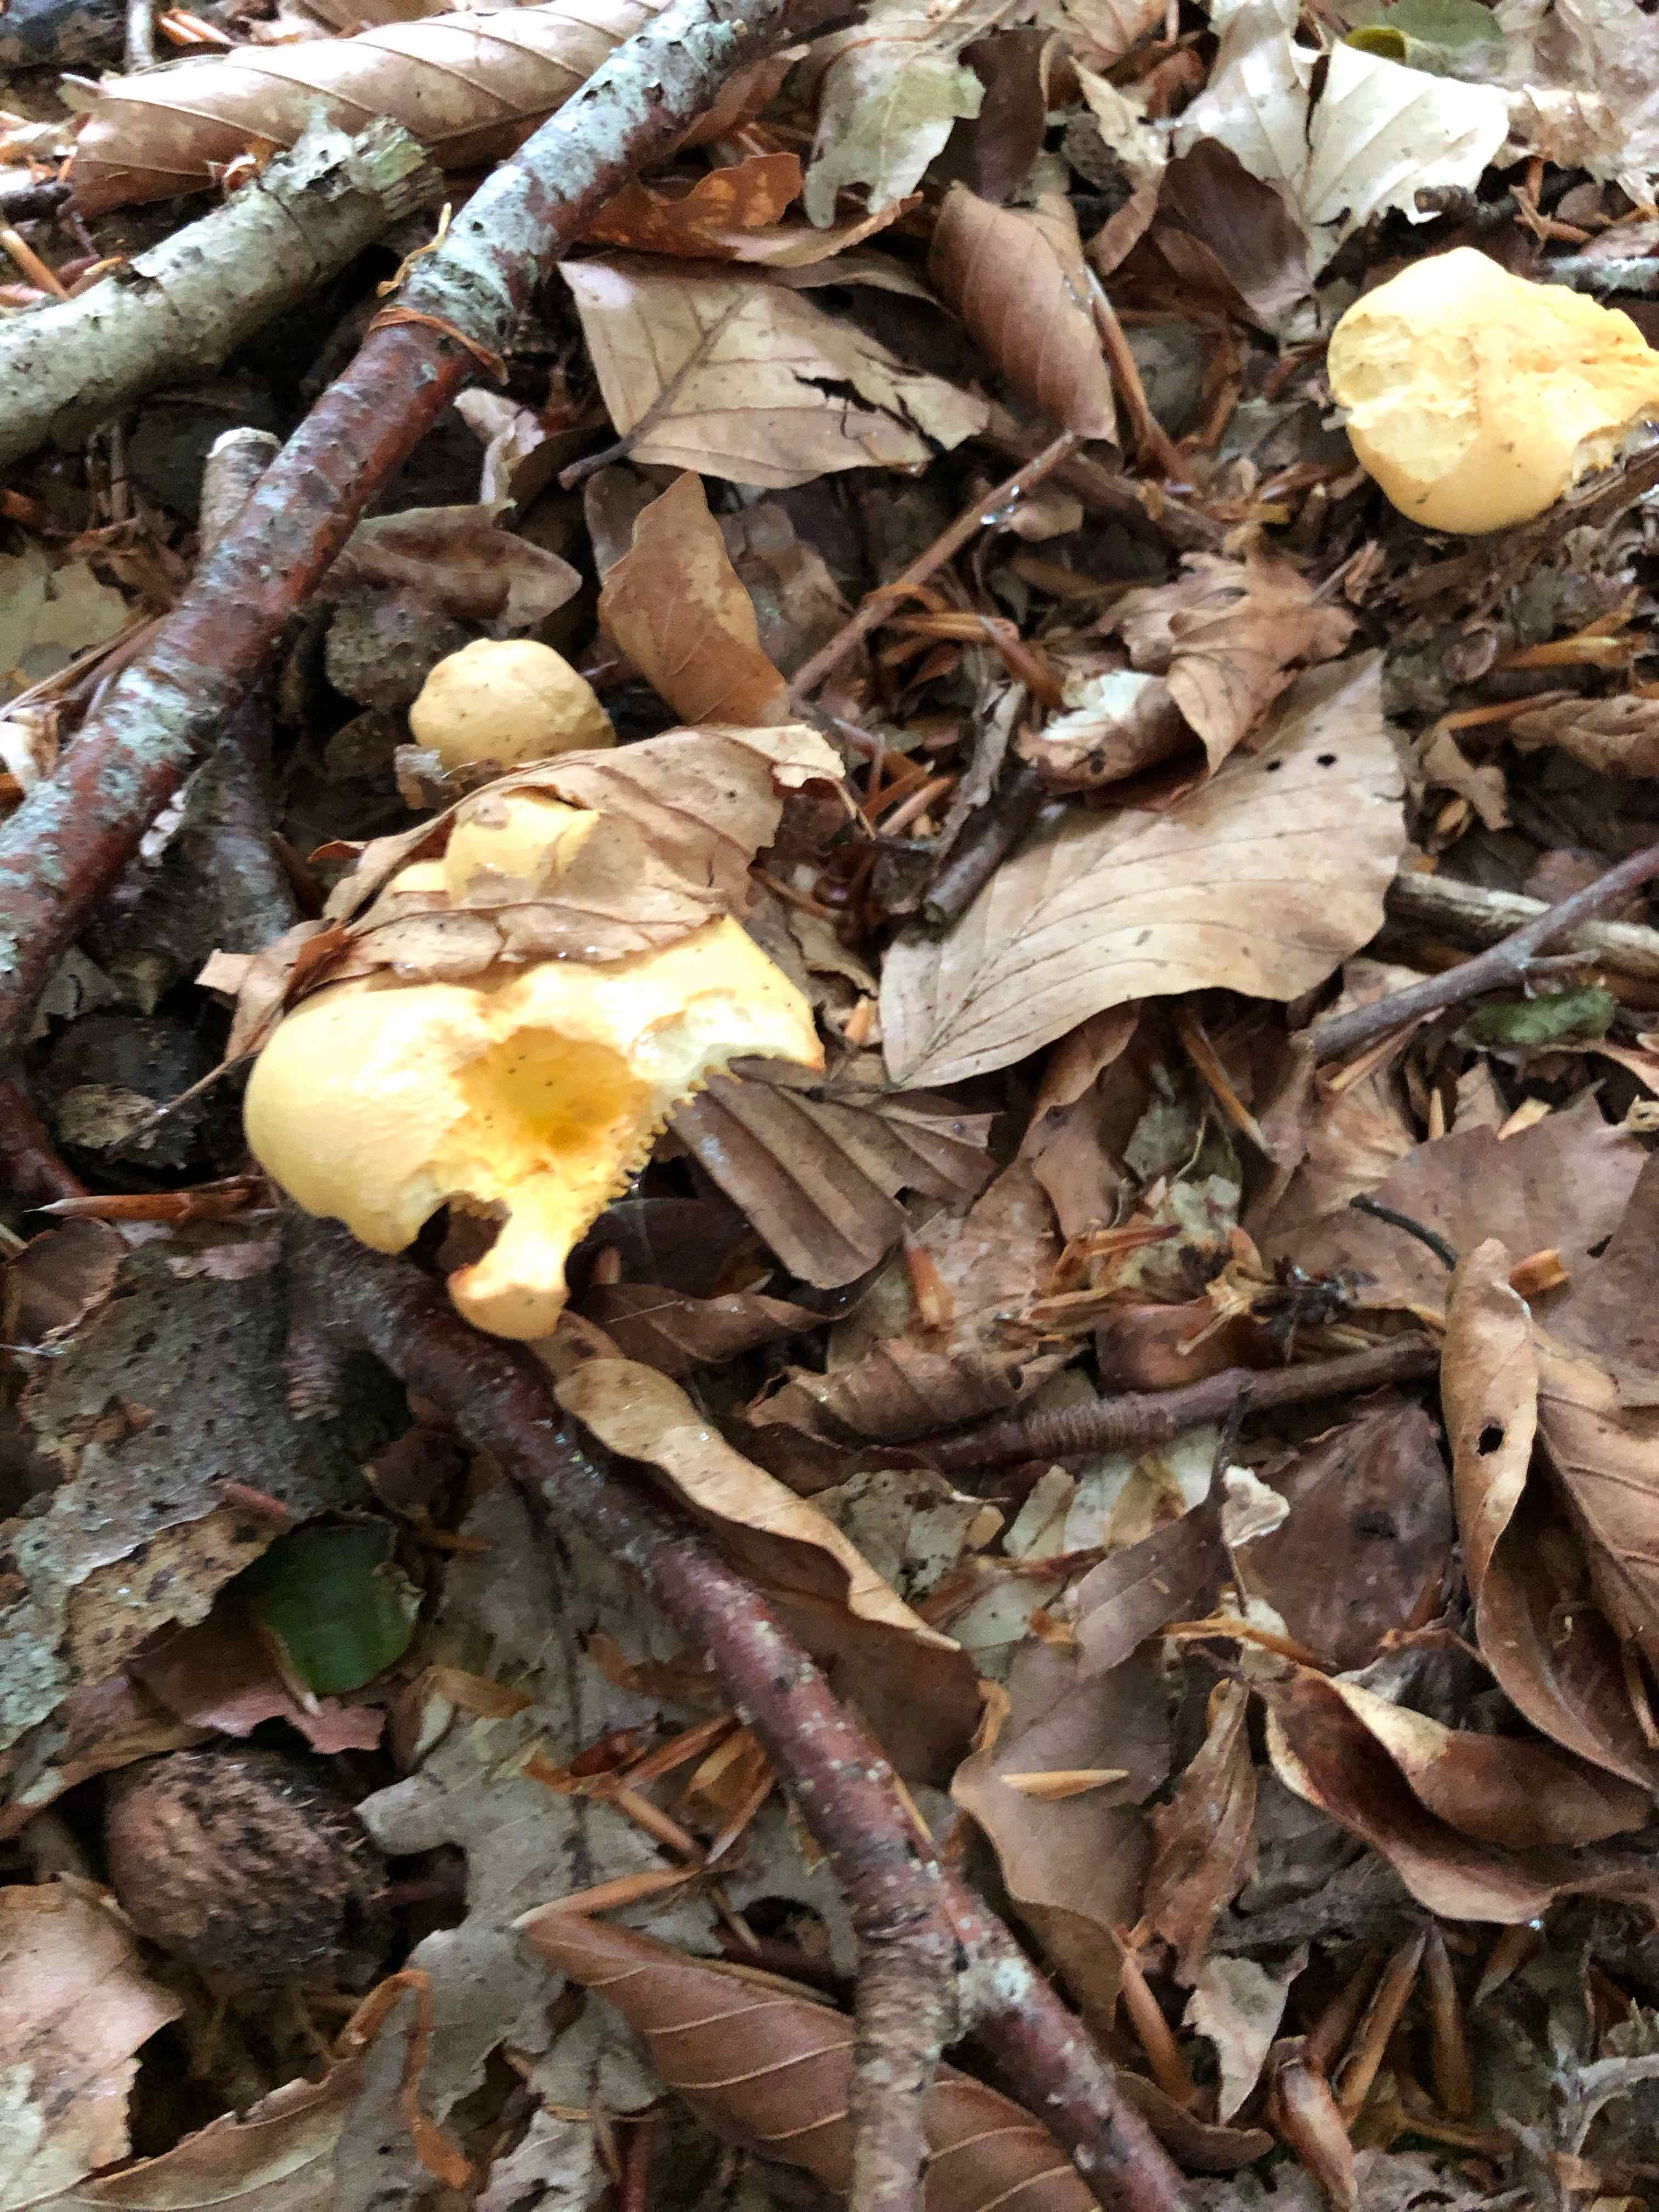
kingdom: Fungi
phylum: Basidiomycota
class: Agaricomycetes
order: Cantharellales
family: Hydnaceae
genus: Cantharellus
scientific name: Cantharellus pallens
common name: bleg kantarel
